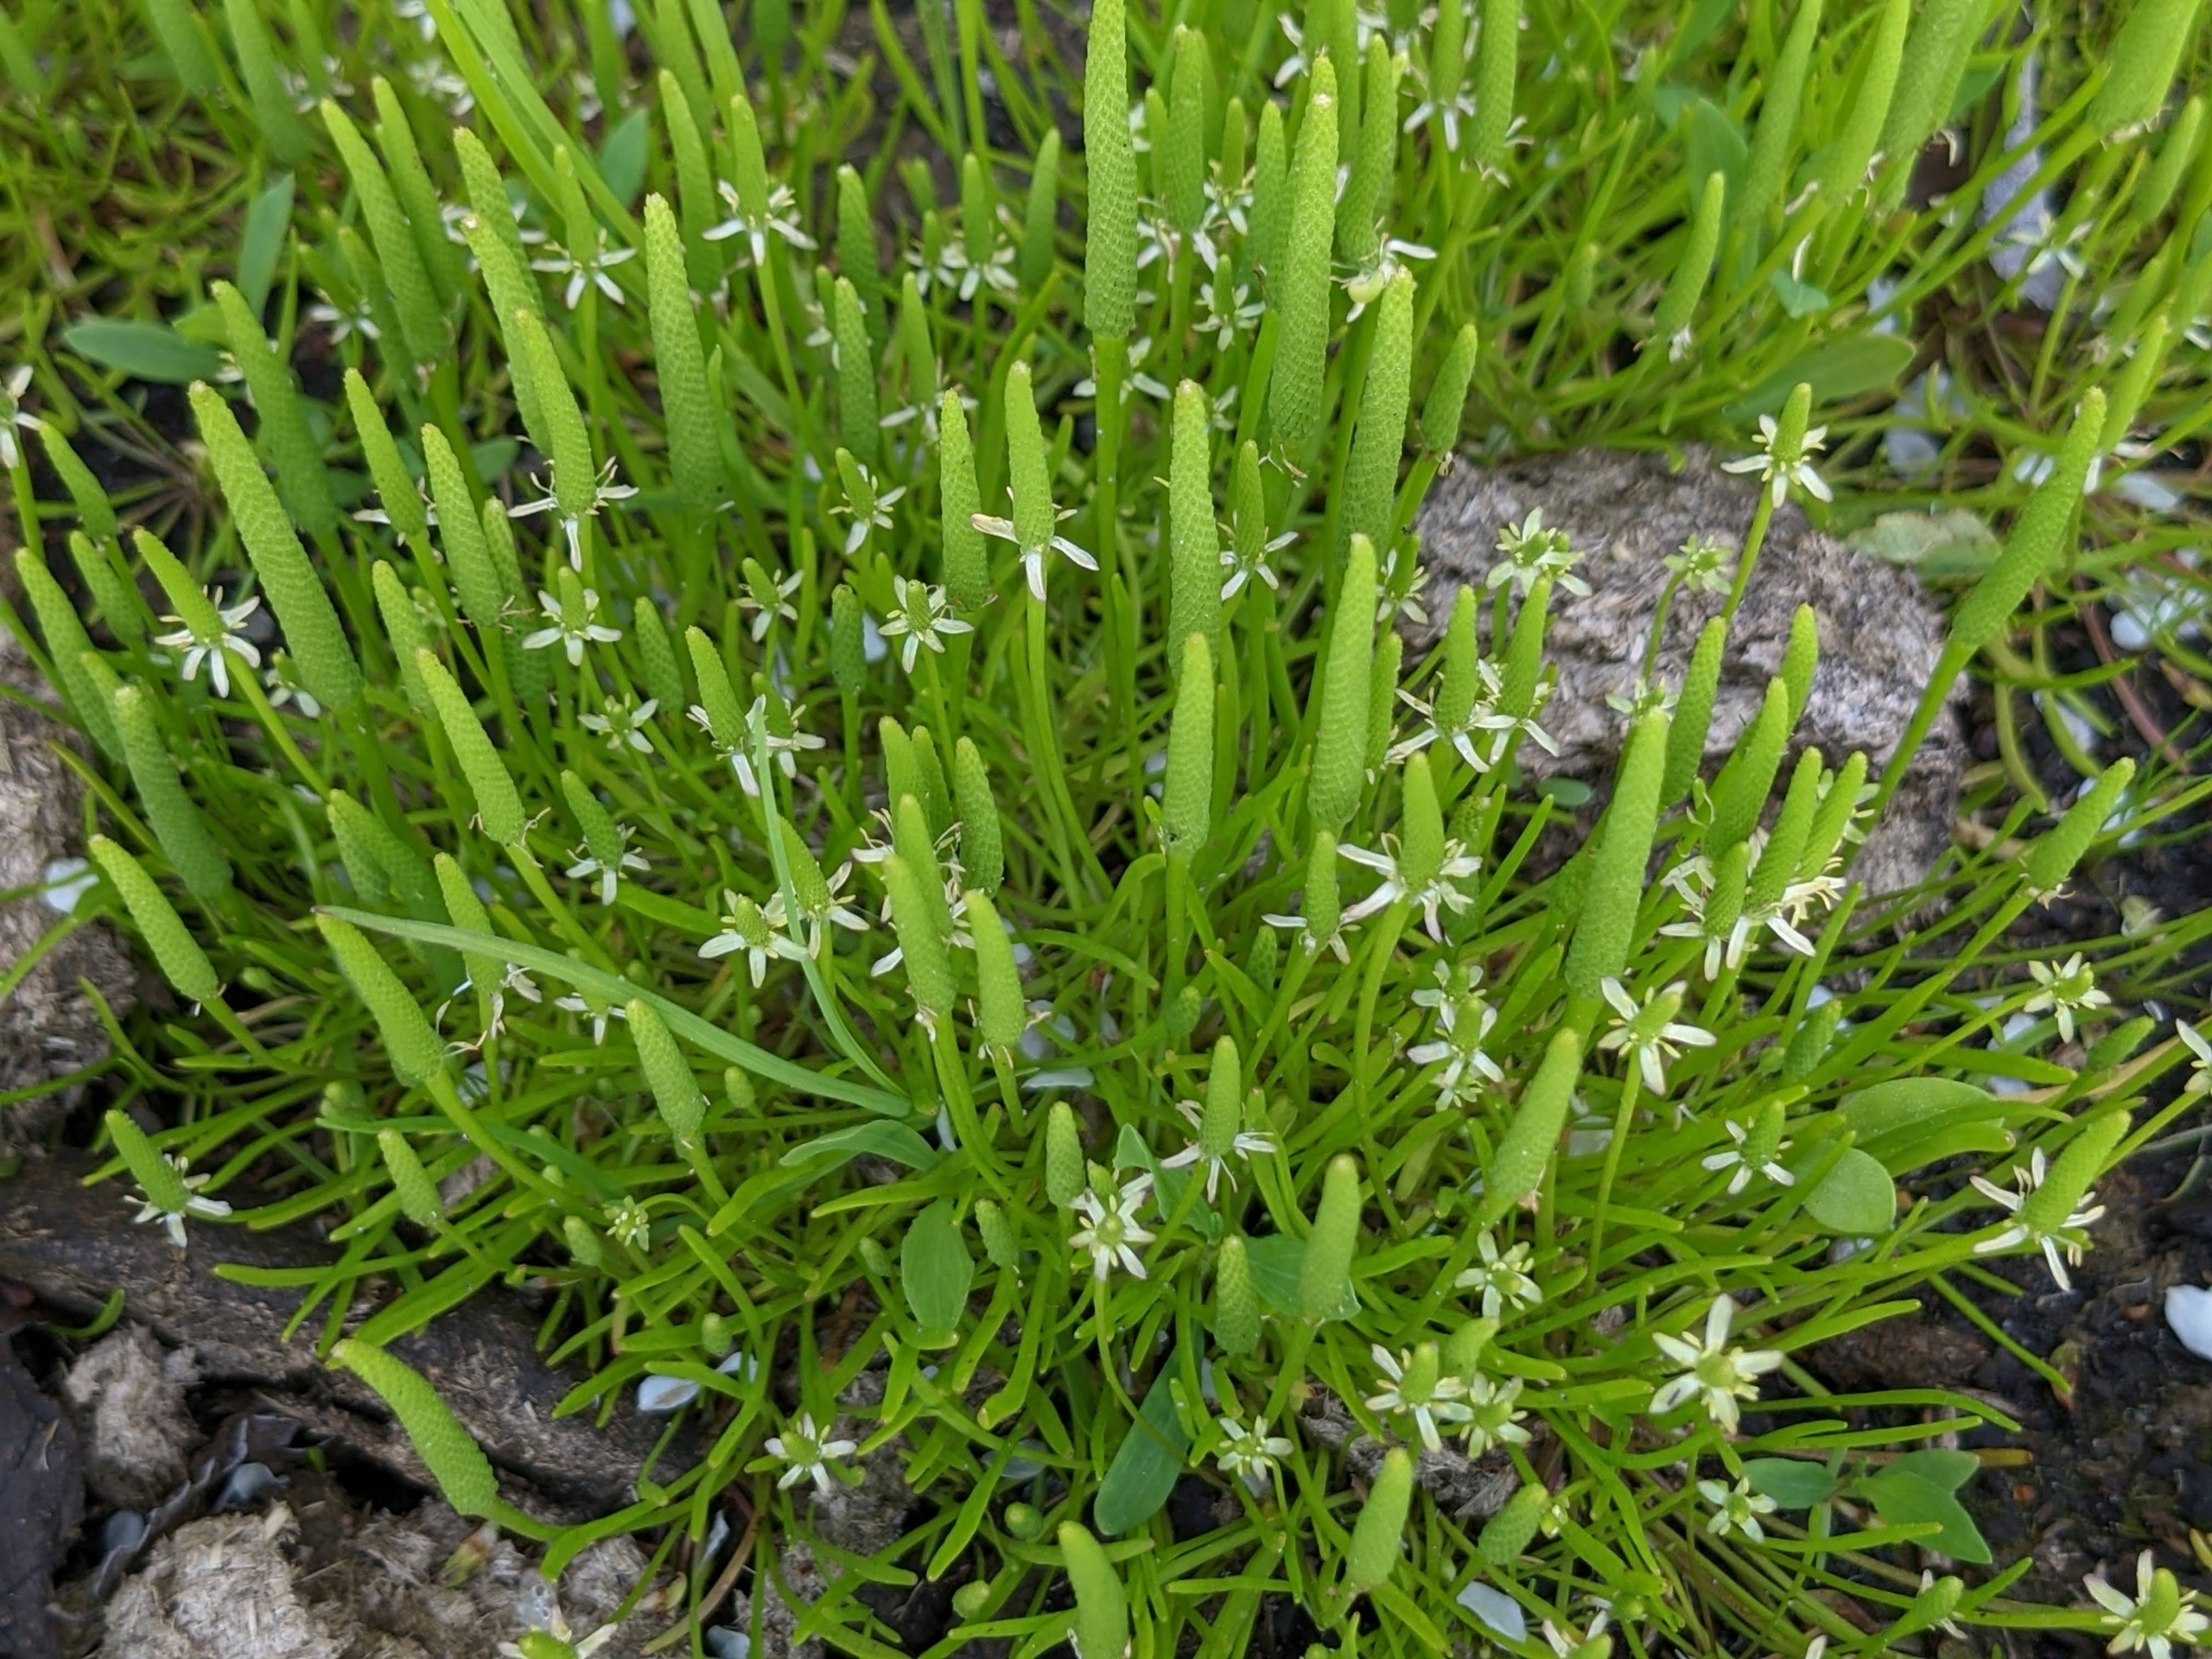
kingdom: Plantae
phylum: Tracheophyta
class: Magnoliopsida
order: Ranunculales
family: Ranunculaceae
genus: Myosurus
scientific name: Myosurus minimus
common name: Musehale
